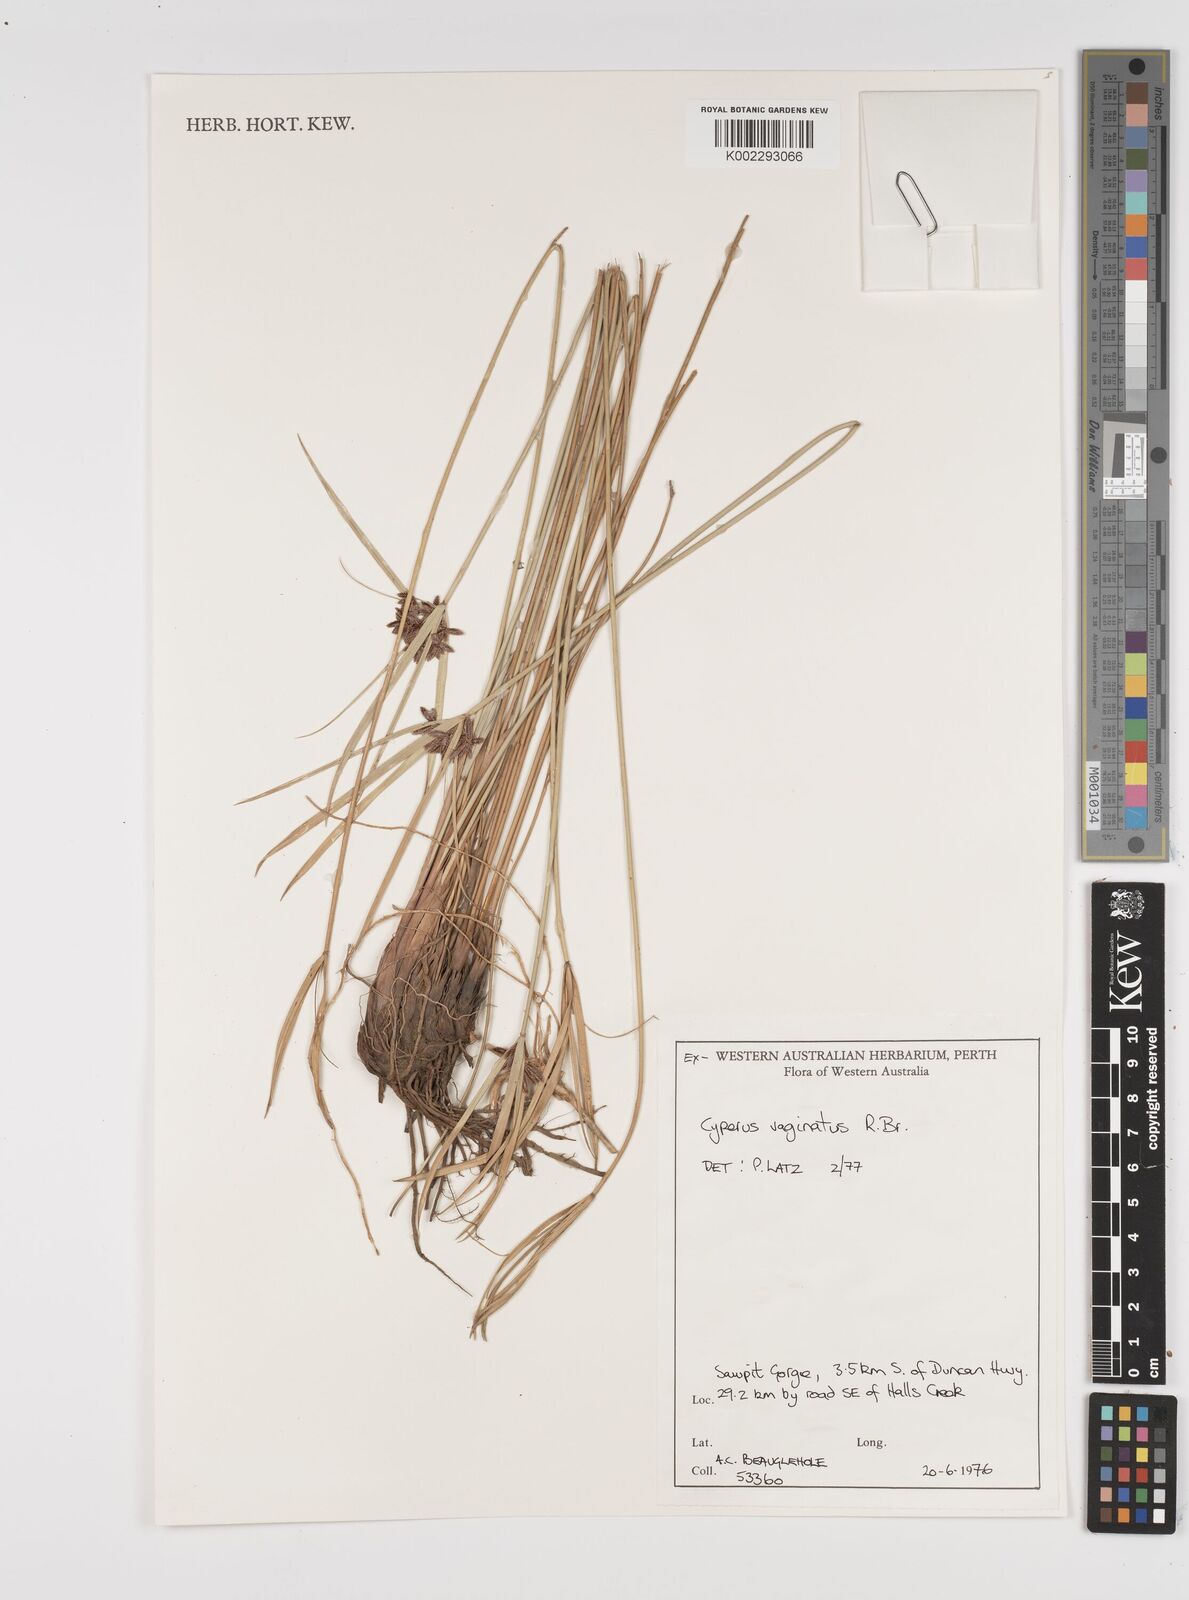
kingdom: Plantae
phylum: Tracheophyta
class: Liliopsida
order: Poales
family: Cyperaceae
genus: Cyperus
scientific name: Cyperus vaginatus
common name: Stiff-leaved flat-sedge
